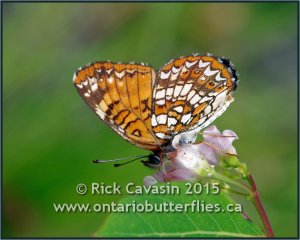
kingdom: Animalia
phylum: Arthropoda
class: Insecta
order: Lepidoptera
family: Nymphalidae
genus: Chlosyne
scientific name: Chlosyne harrisii
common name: Harris's Checkerspot
